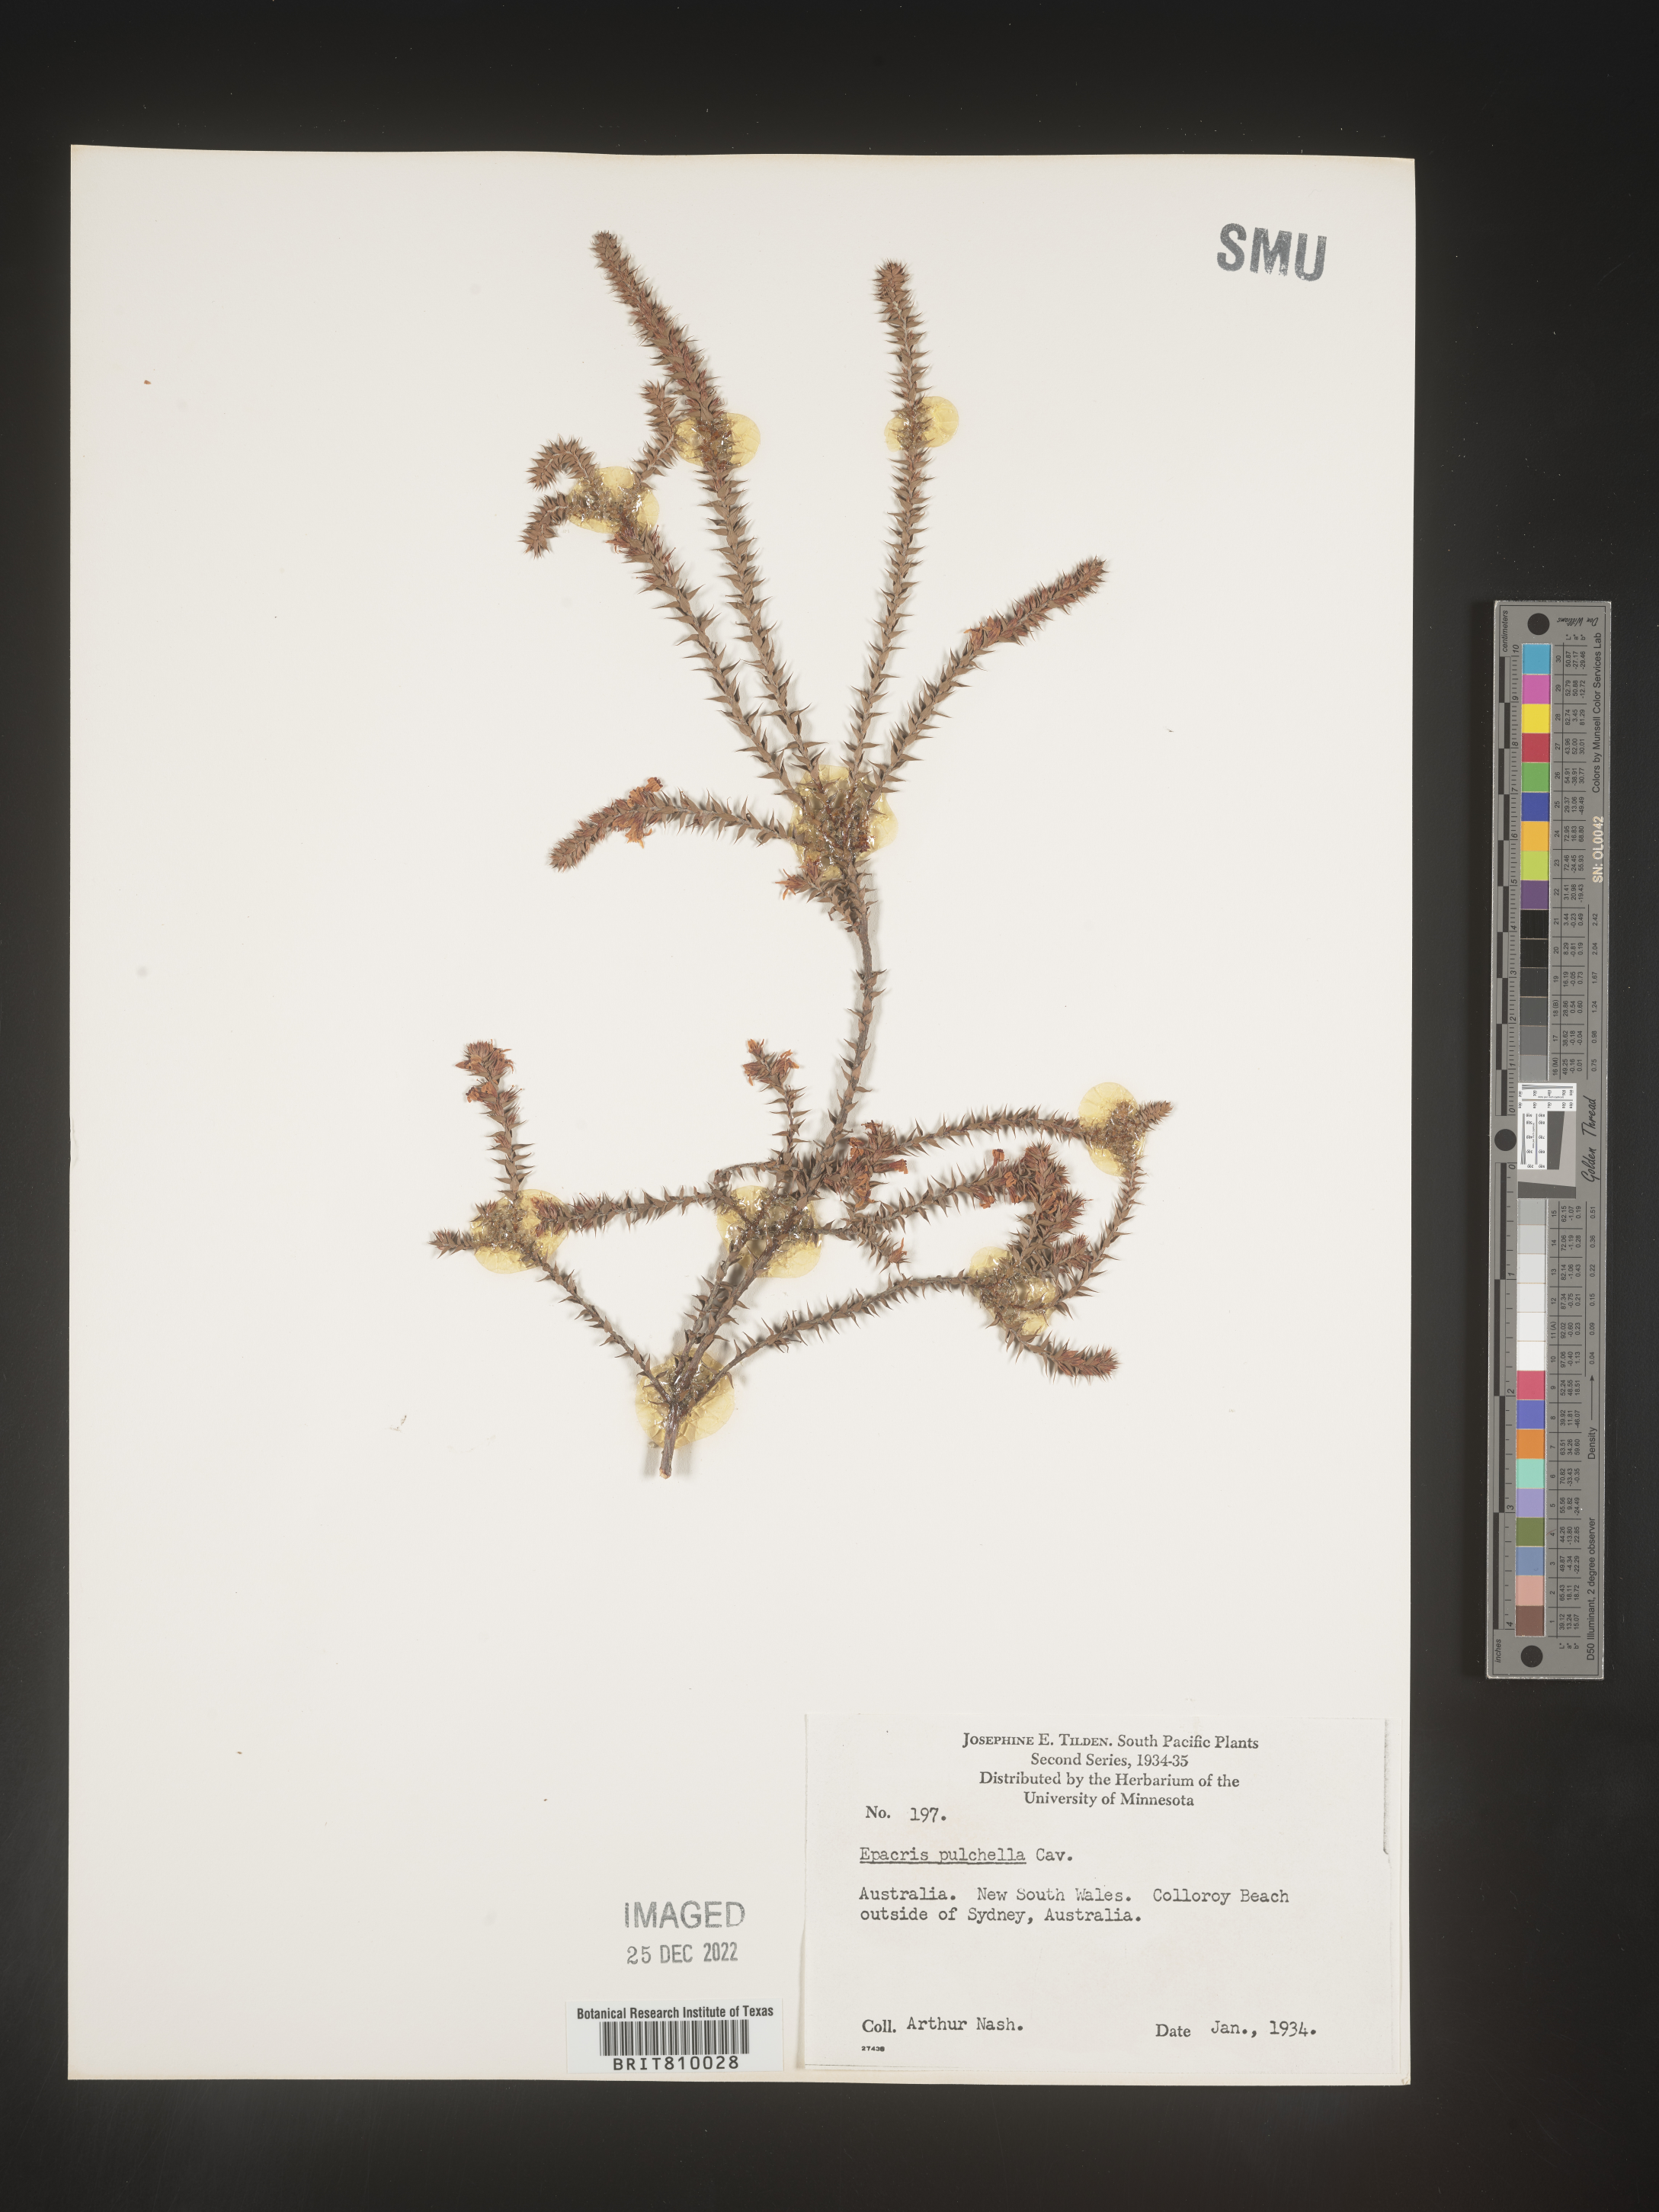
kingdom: Plantae
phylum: Tracheophyta
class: Magnoliopsida
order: Ericales
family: Ericaceae
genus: Epacris
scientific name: Epacris
